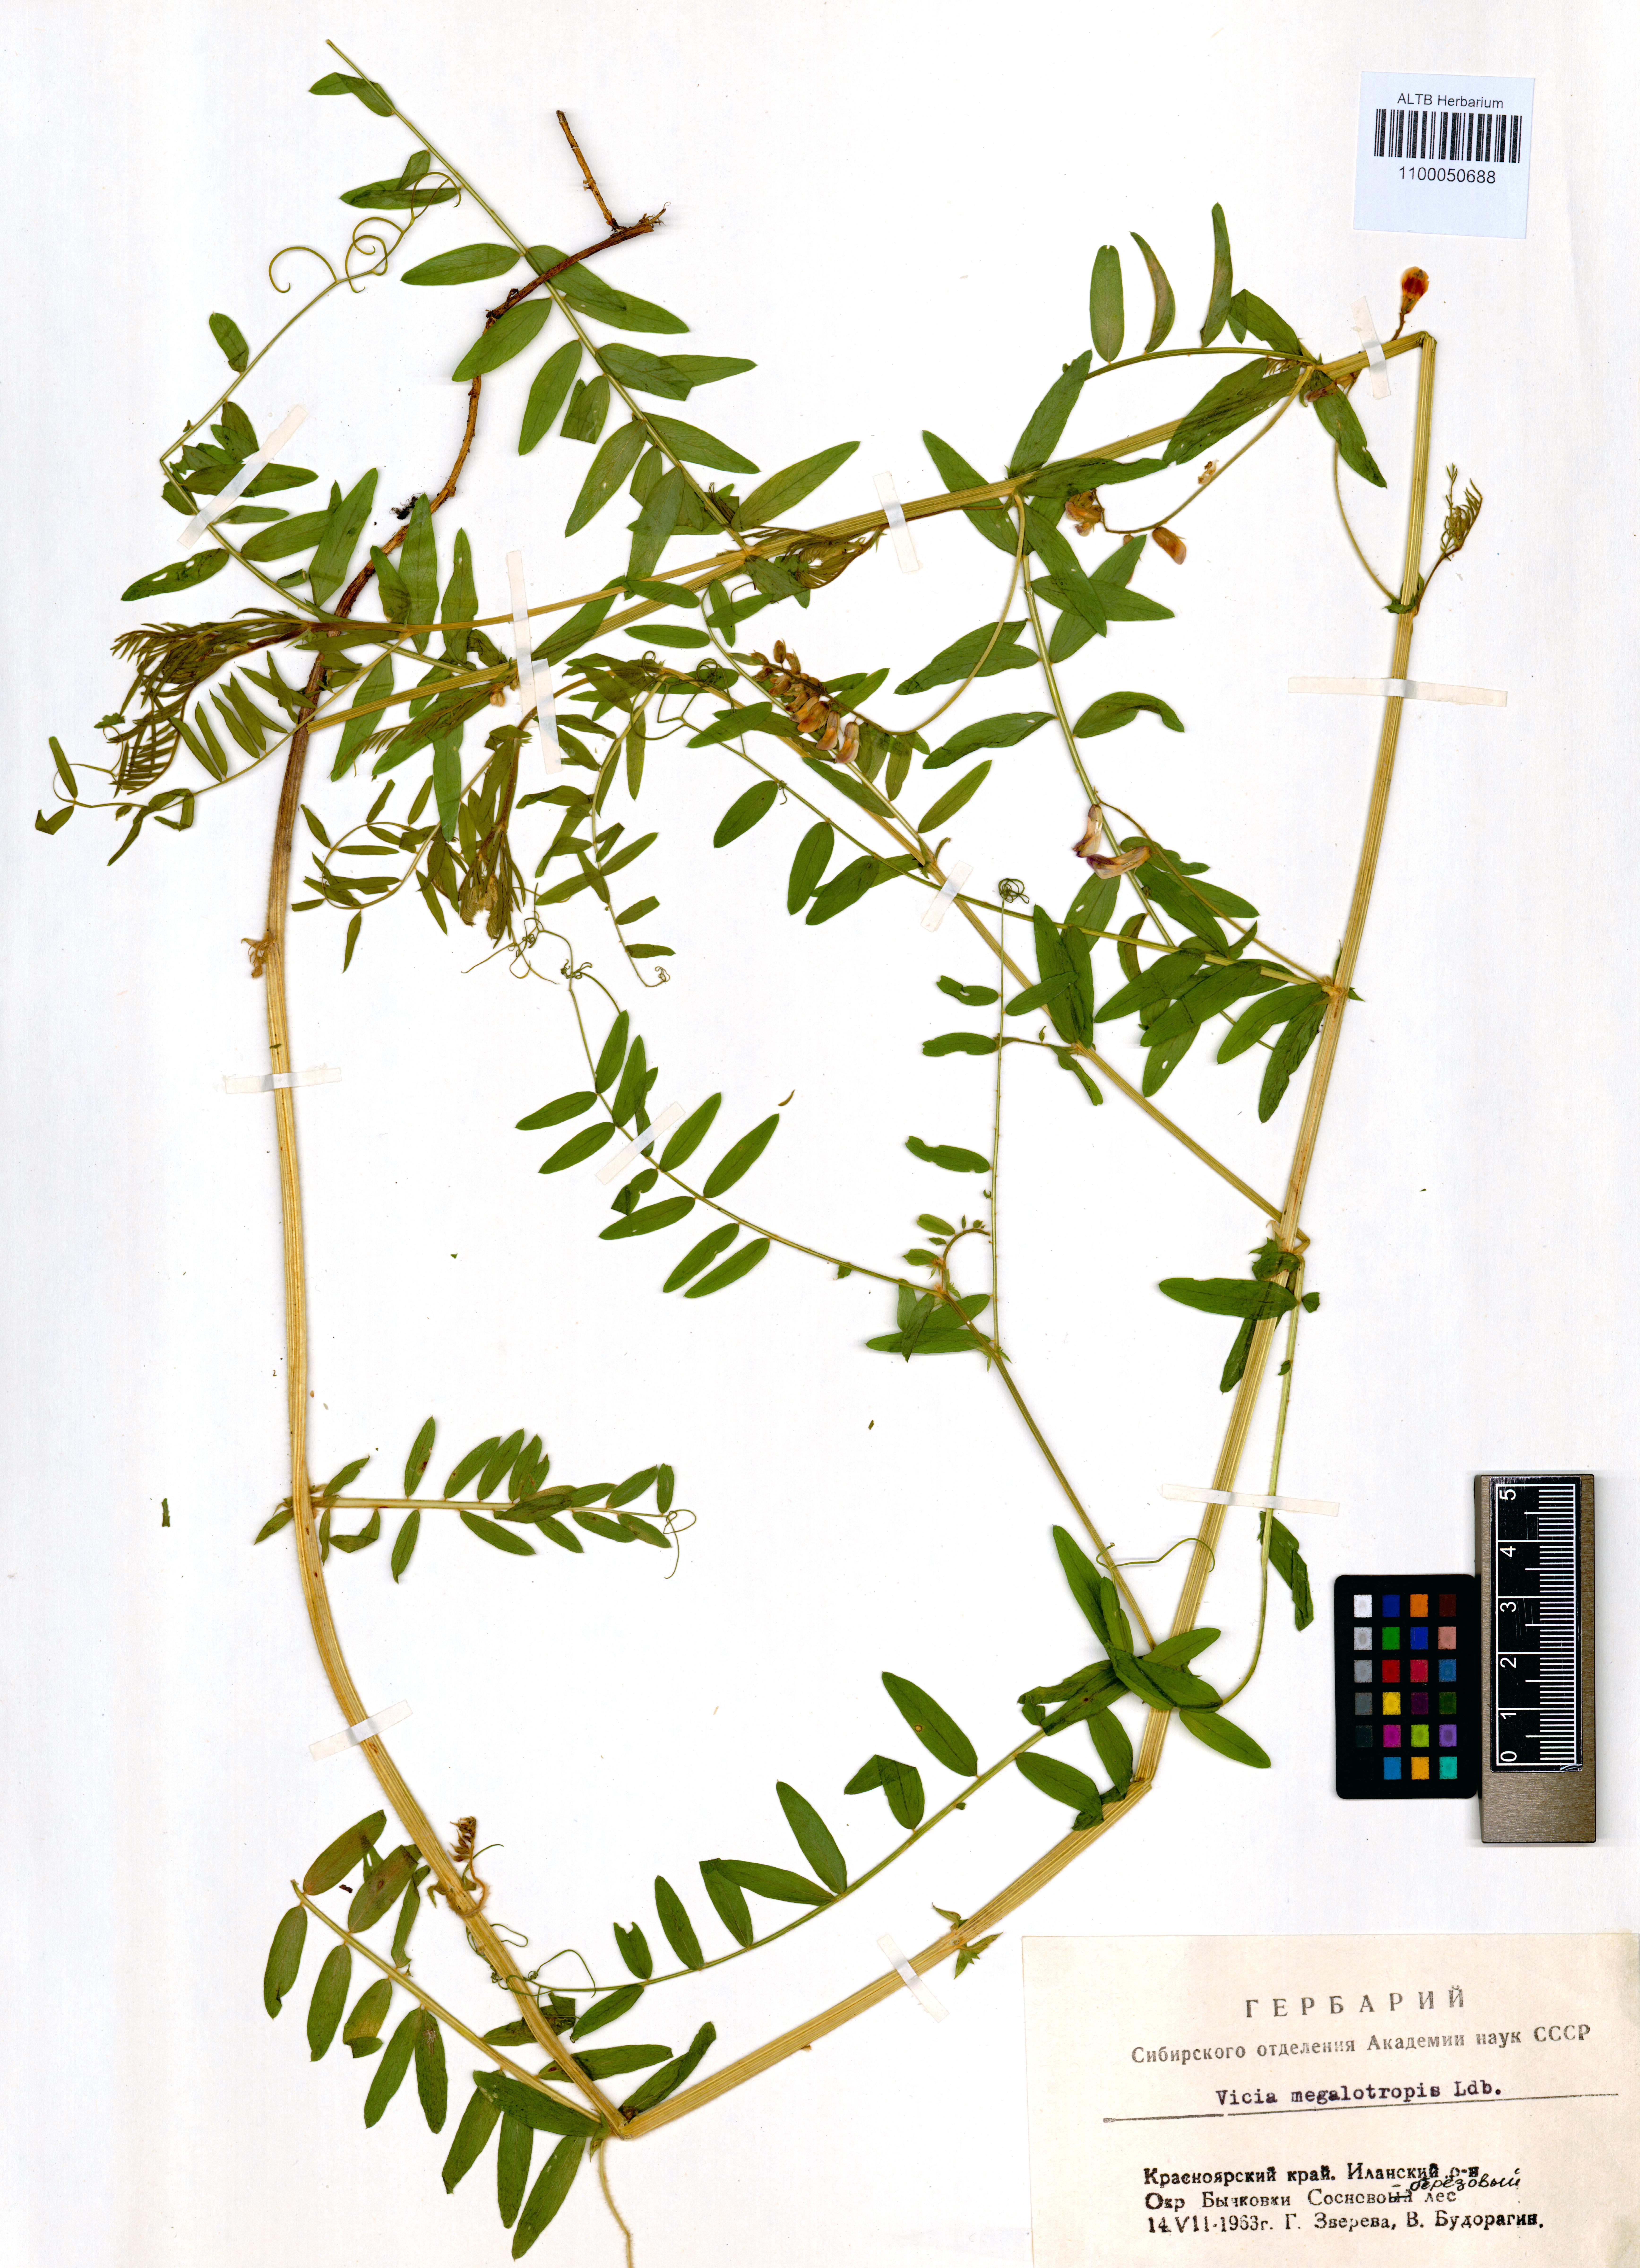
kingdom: Plantae
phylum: Tracheophyta
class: Magnoliopsida
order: Fabales
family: Fabaceae
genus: Vicia
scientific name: Vicia megalotropis
